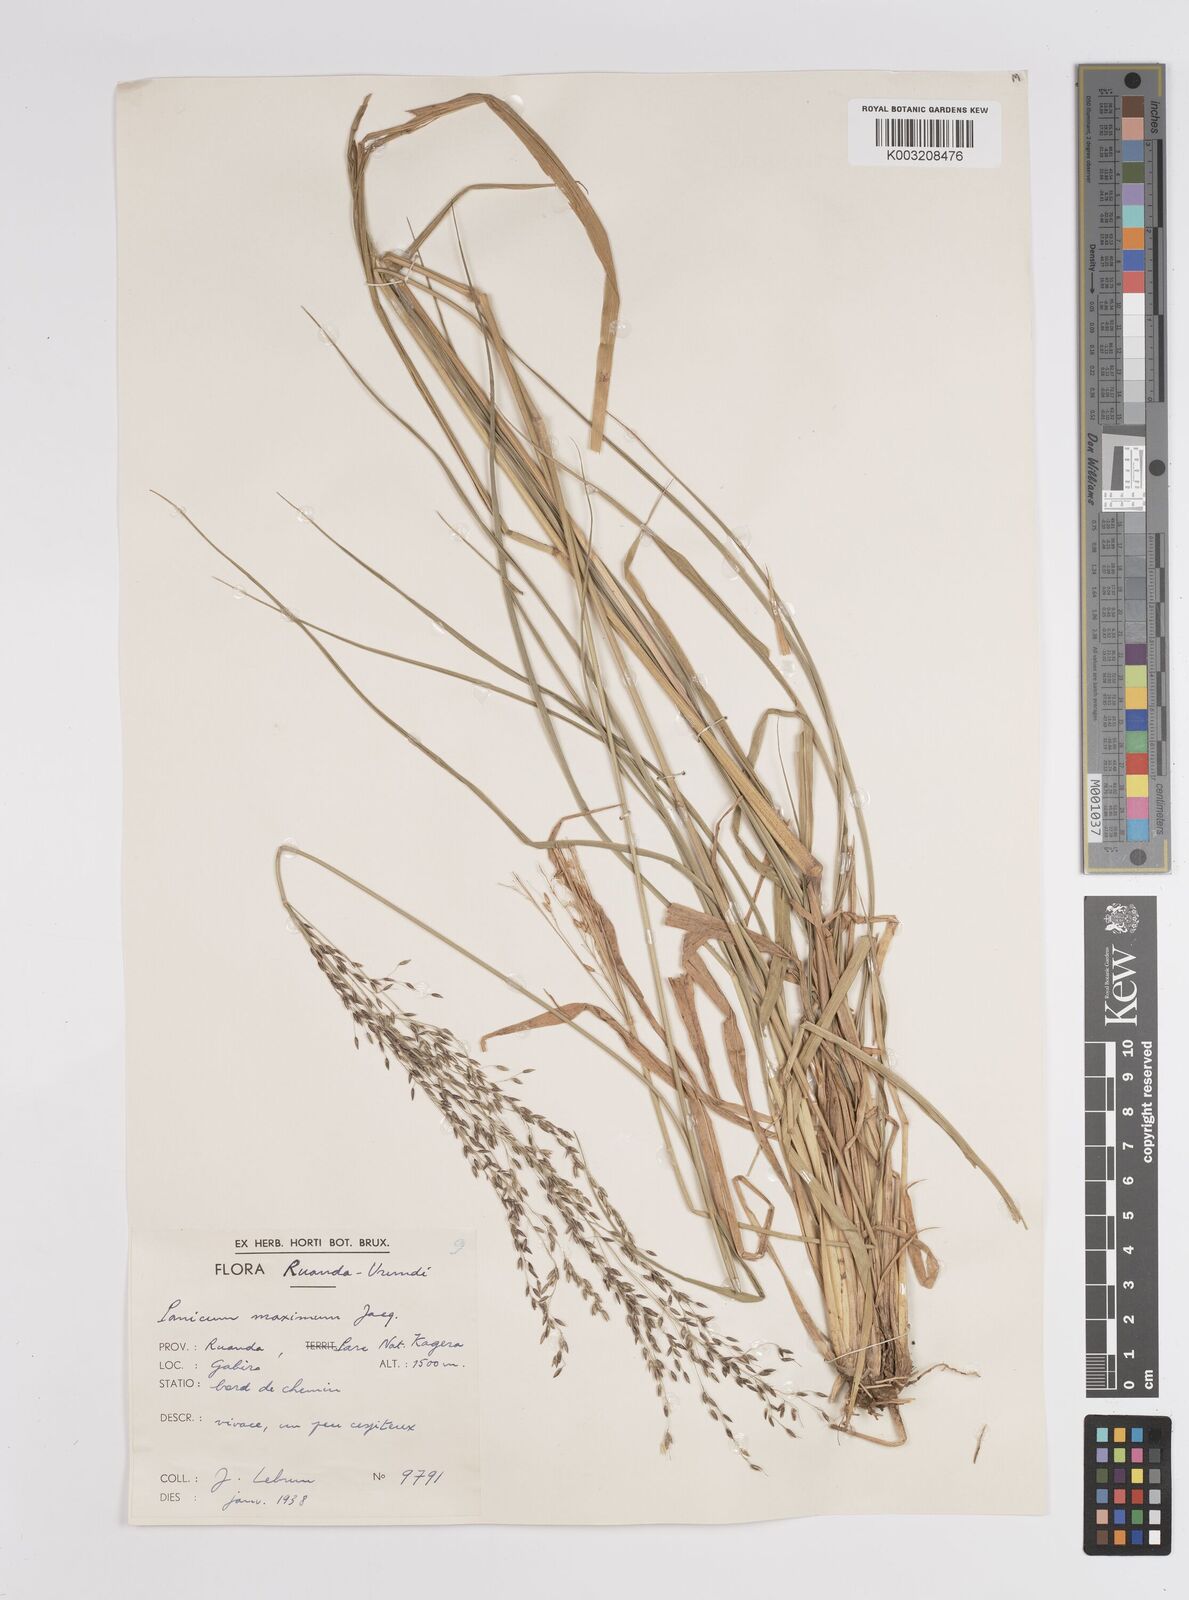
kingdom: Plantae
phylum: Tracheophyta
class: Liliopsida
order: Poales
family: Poaceae
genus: Megathyrsus
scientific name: Megathyrsus maximus
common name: Guineagrass
